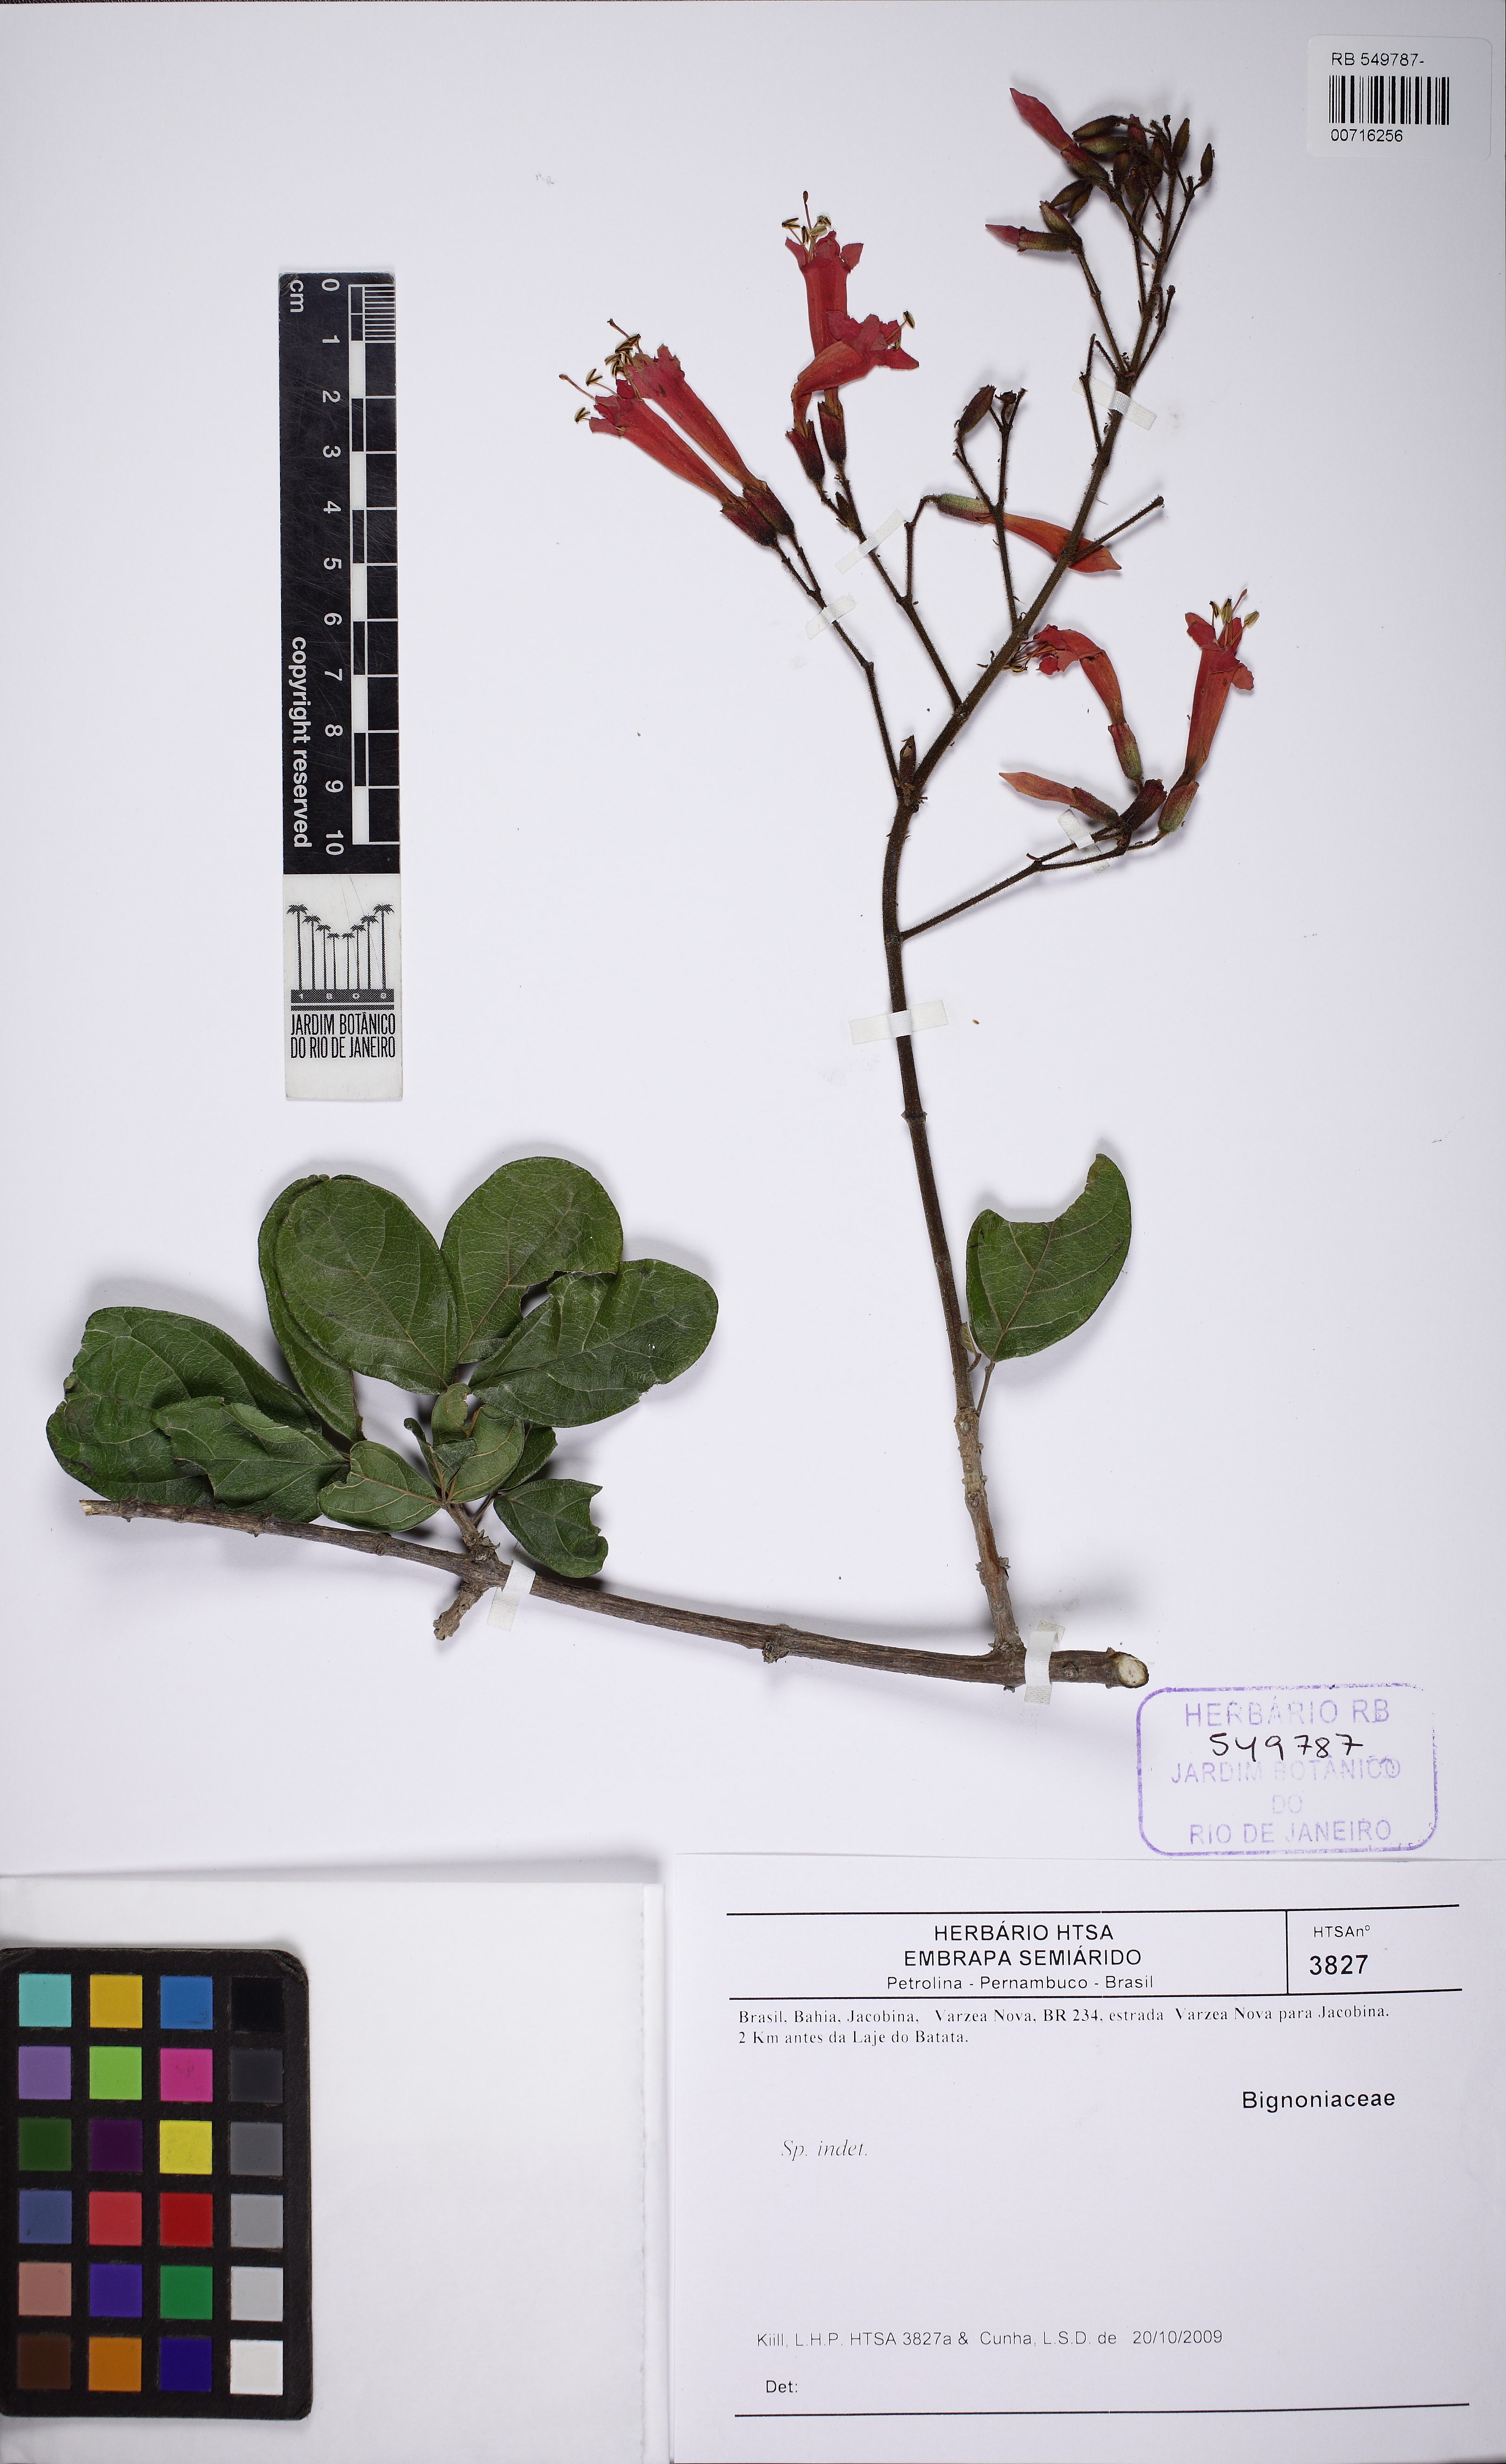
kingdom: Plantae
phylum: Tracheophyta
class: Magnoliopsida
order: Lamiales
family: Bignoniaceae
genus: Fridericia
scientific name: Fridericia erubescens
